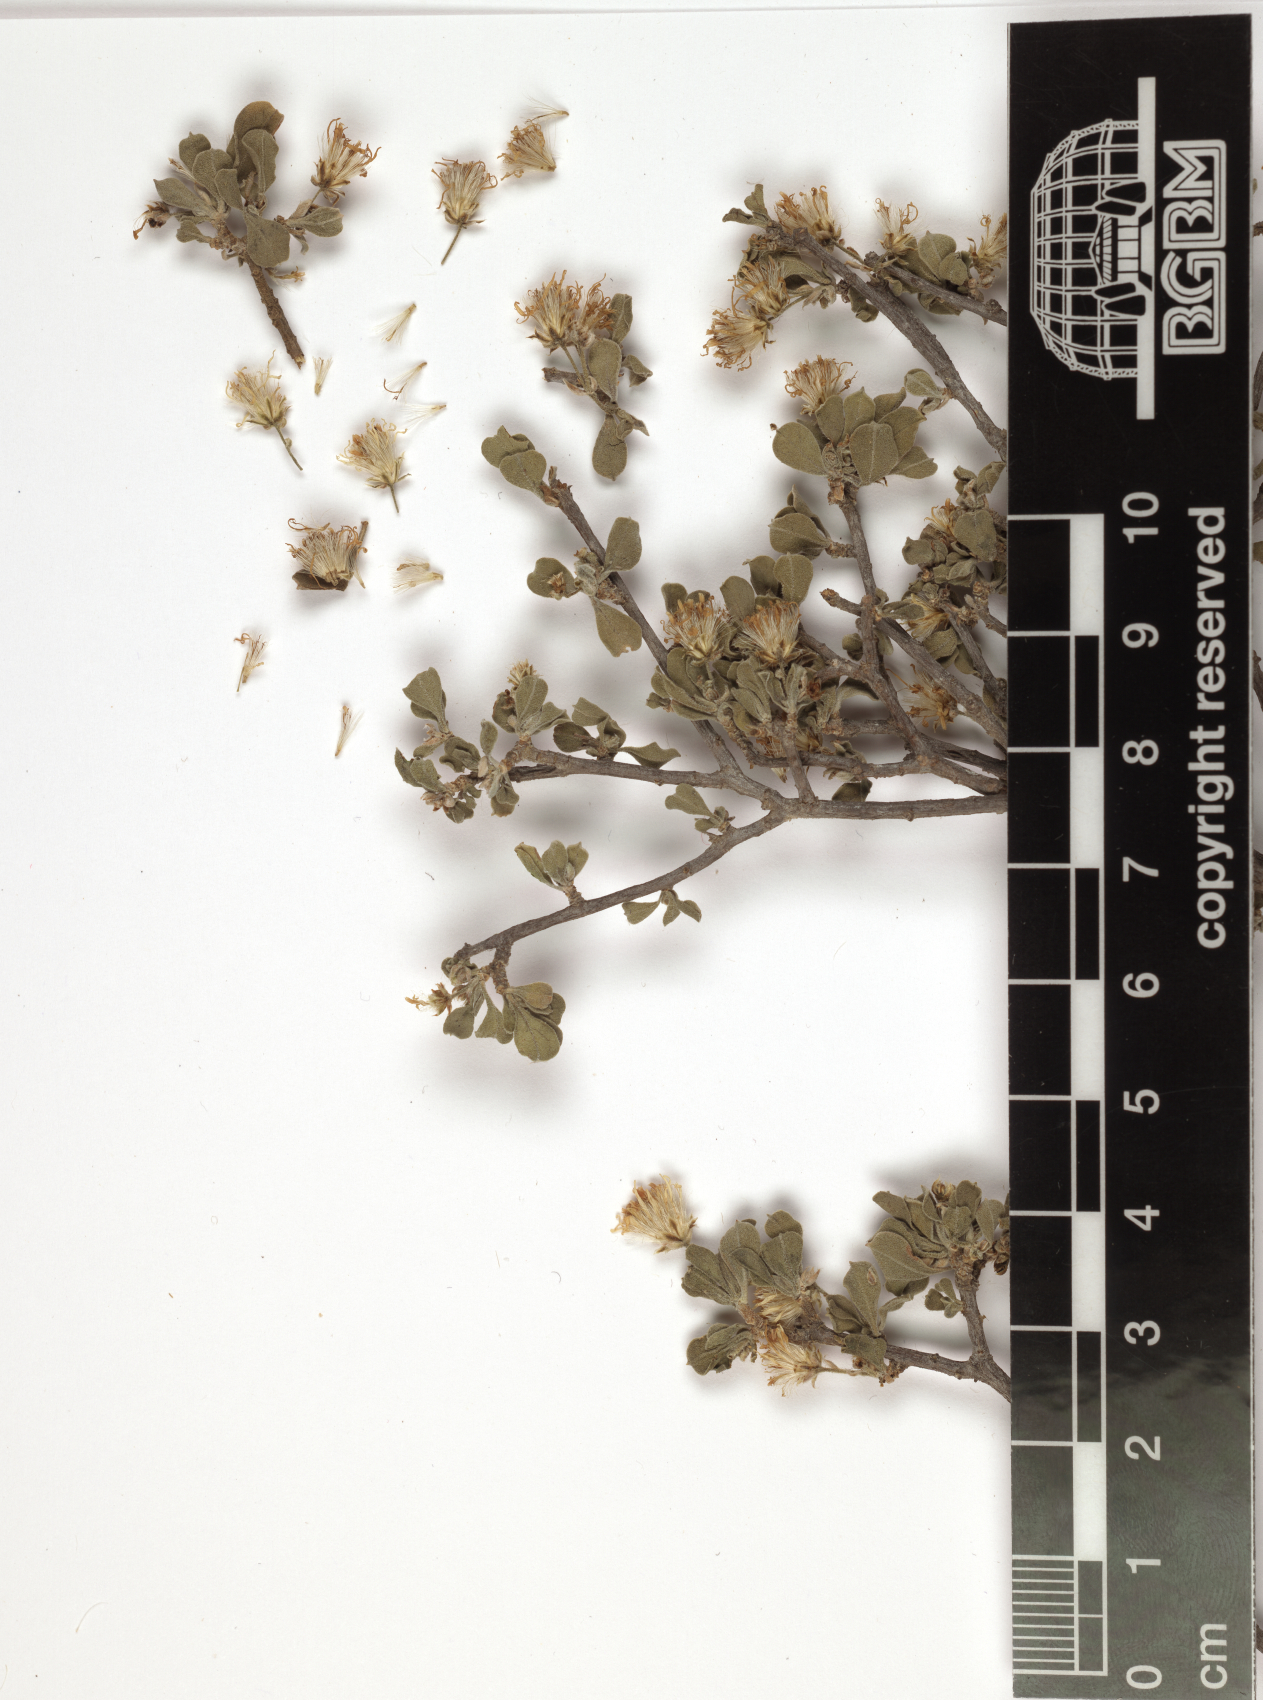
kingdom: Plantae
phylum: Tracheophyta
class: Magnoliopsida
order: Asterales
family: Asteraceae
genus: Psiadia
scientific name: Psiadia incana
